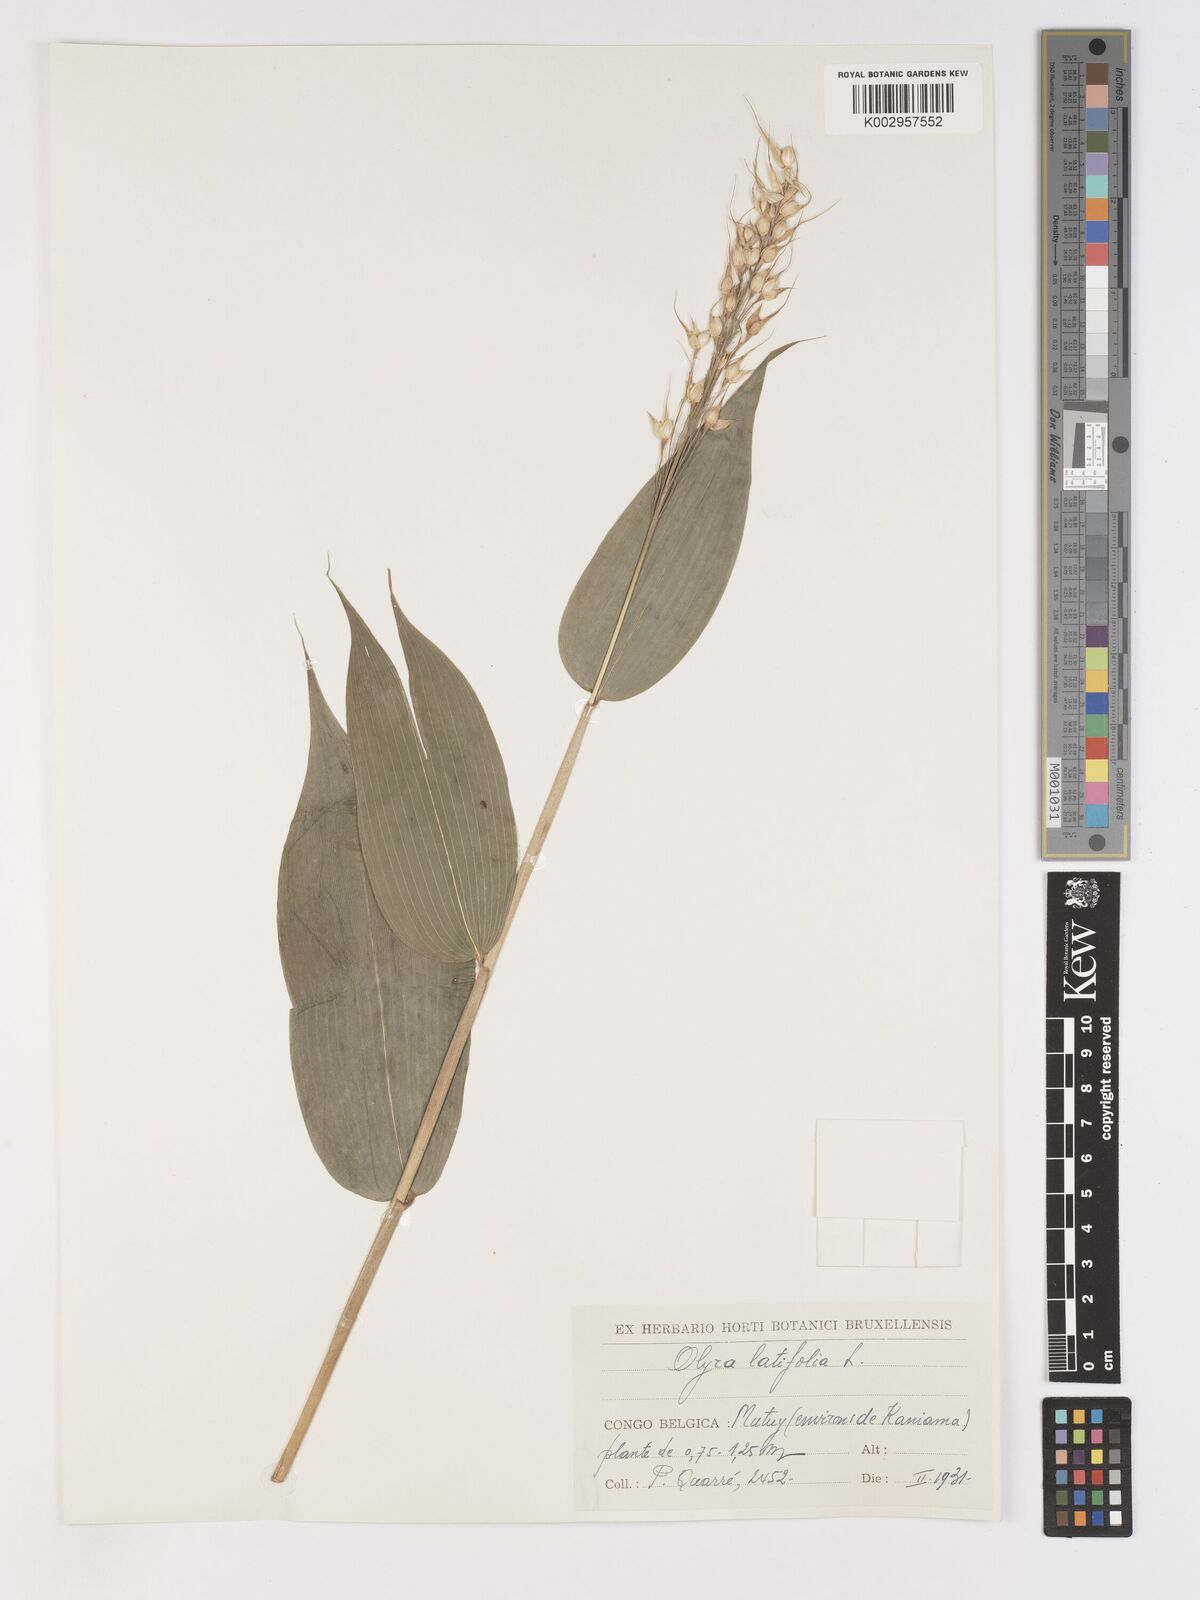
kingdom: Plantae
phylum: Tracheophyta
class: Liliopsida
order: Poales
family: Poaceae
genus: Olyra
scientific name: Olyra latifolia
